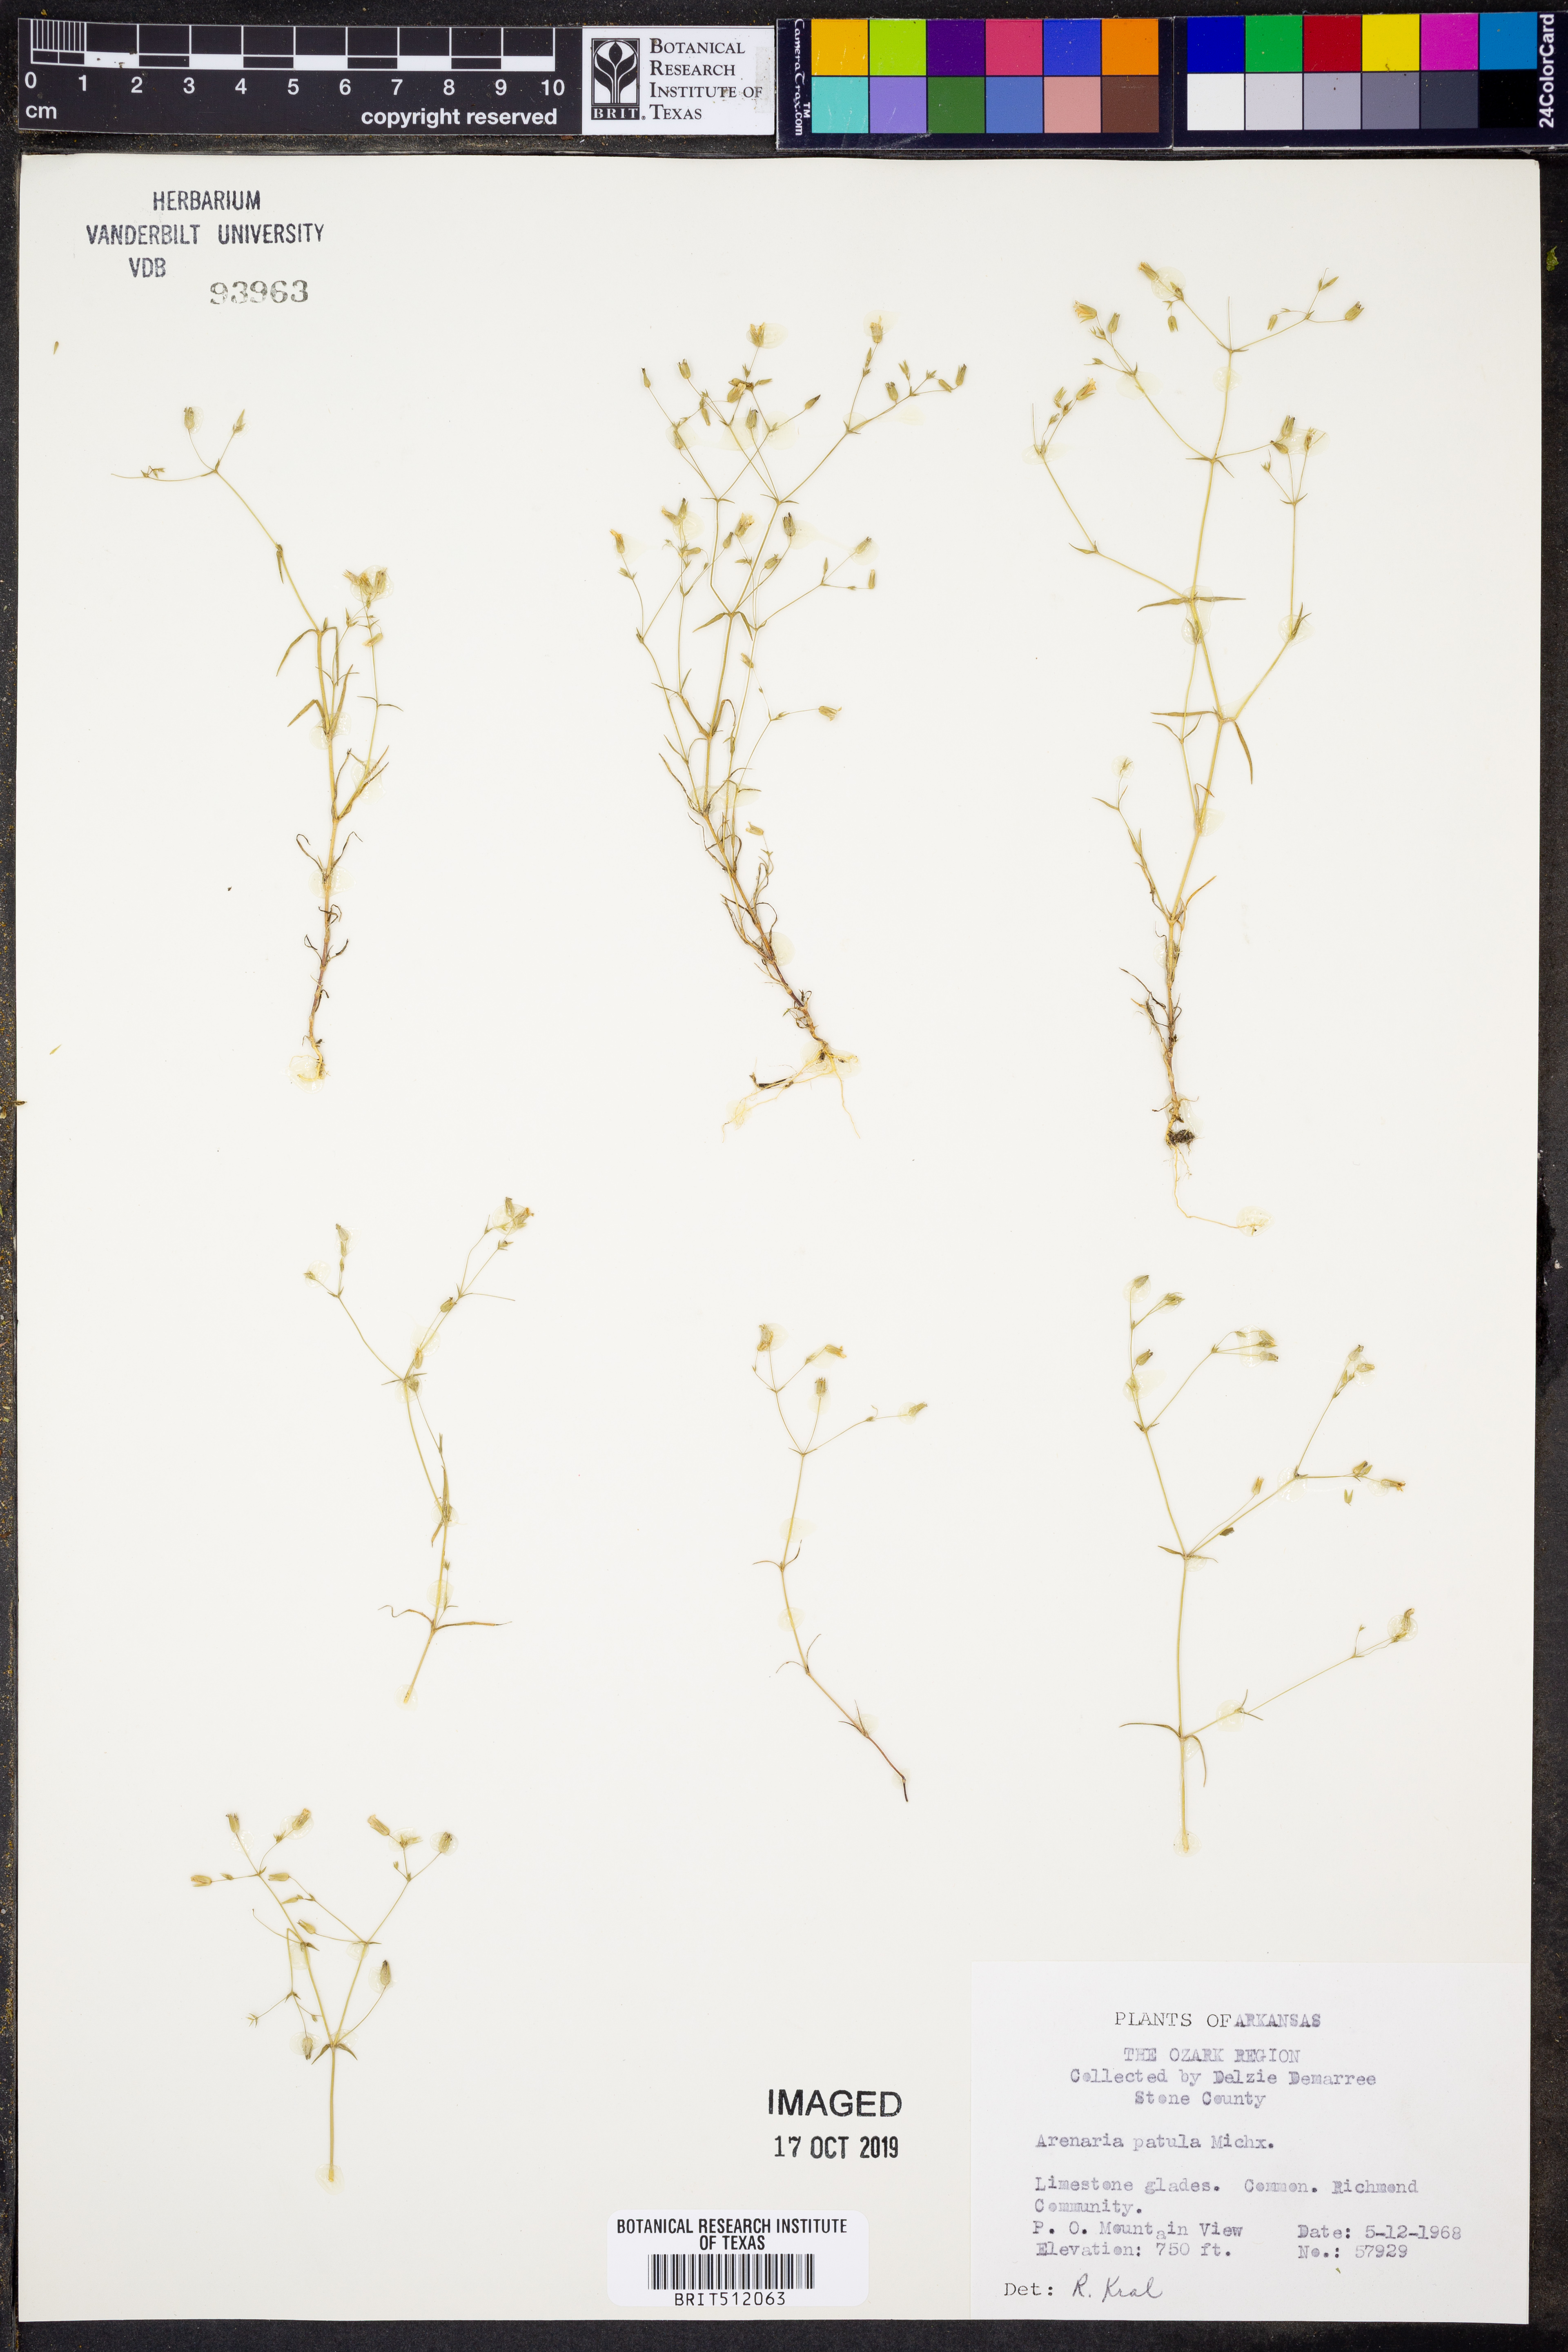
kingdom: Plantae
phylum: Tracheophyta
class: Magnoliopsida
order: Caryophyllales
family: Caryophyllaceae
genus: Mononeuria
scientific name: Mononeuria patula
